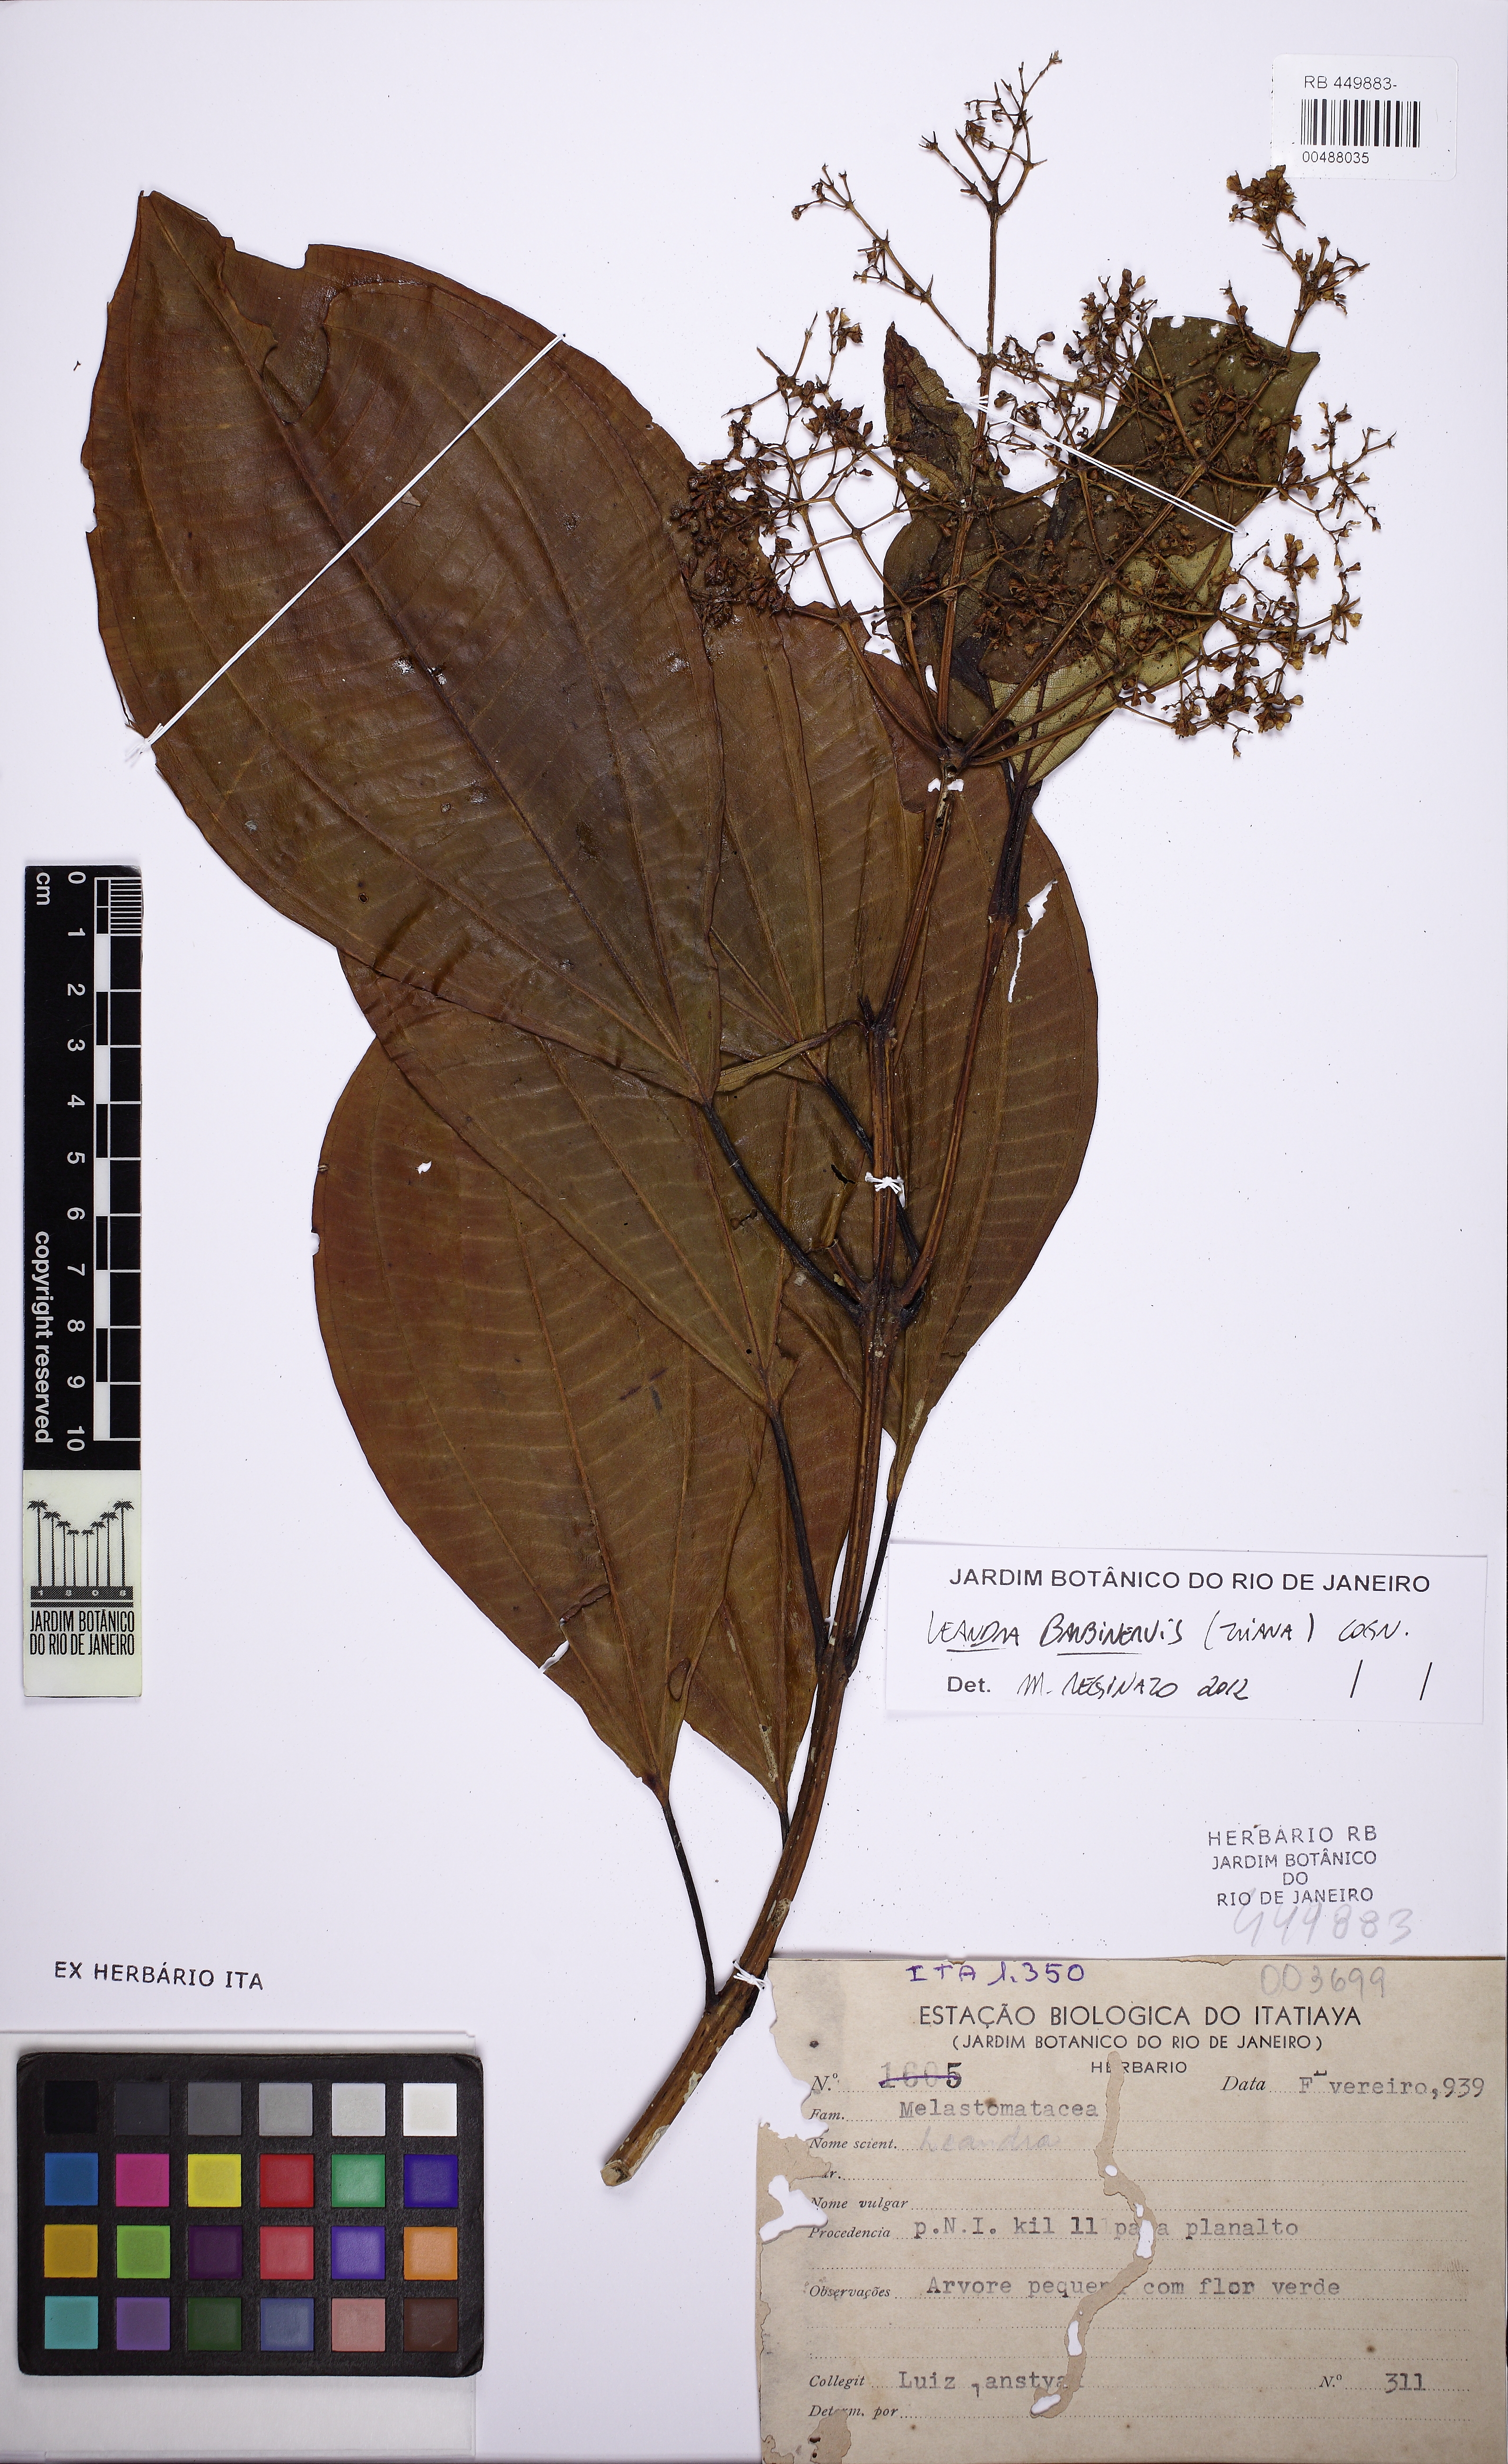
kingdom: Plantae
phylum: Tracheophyta
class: Magnoliopsida
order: Myrtales
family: Melastomataceae
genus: Miconia
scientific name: Miconia trauninensis
